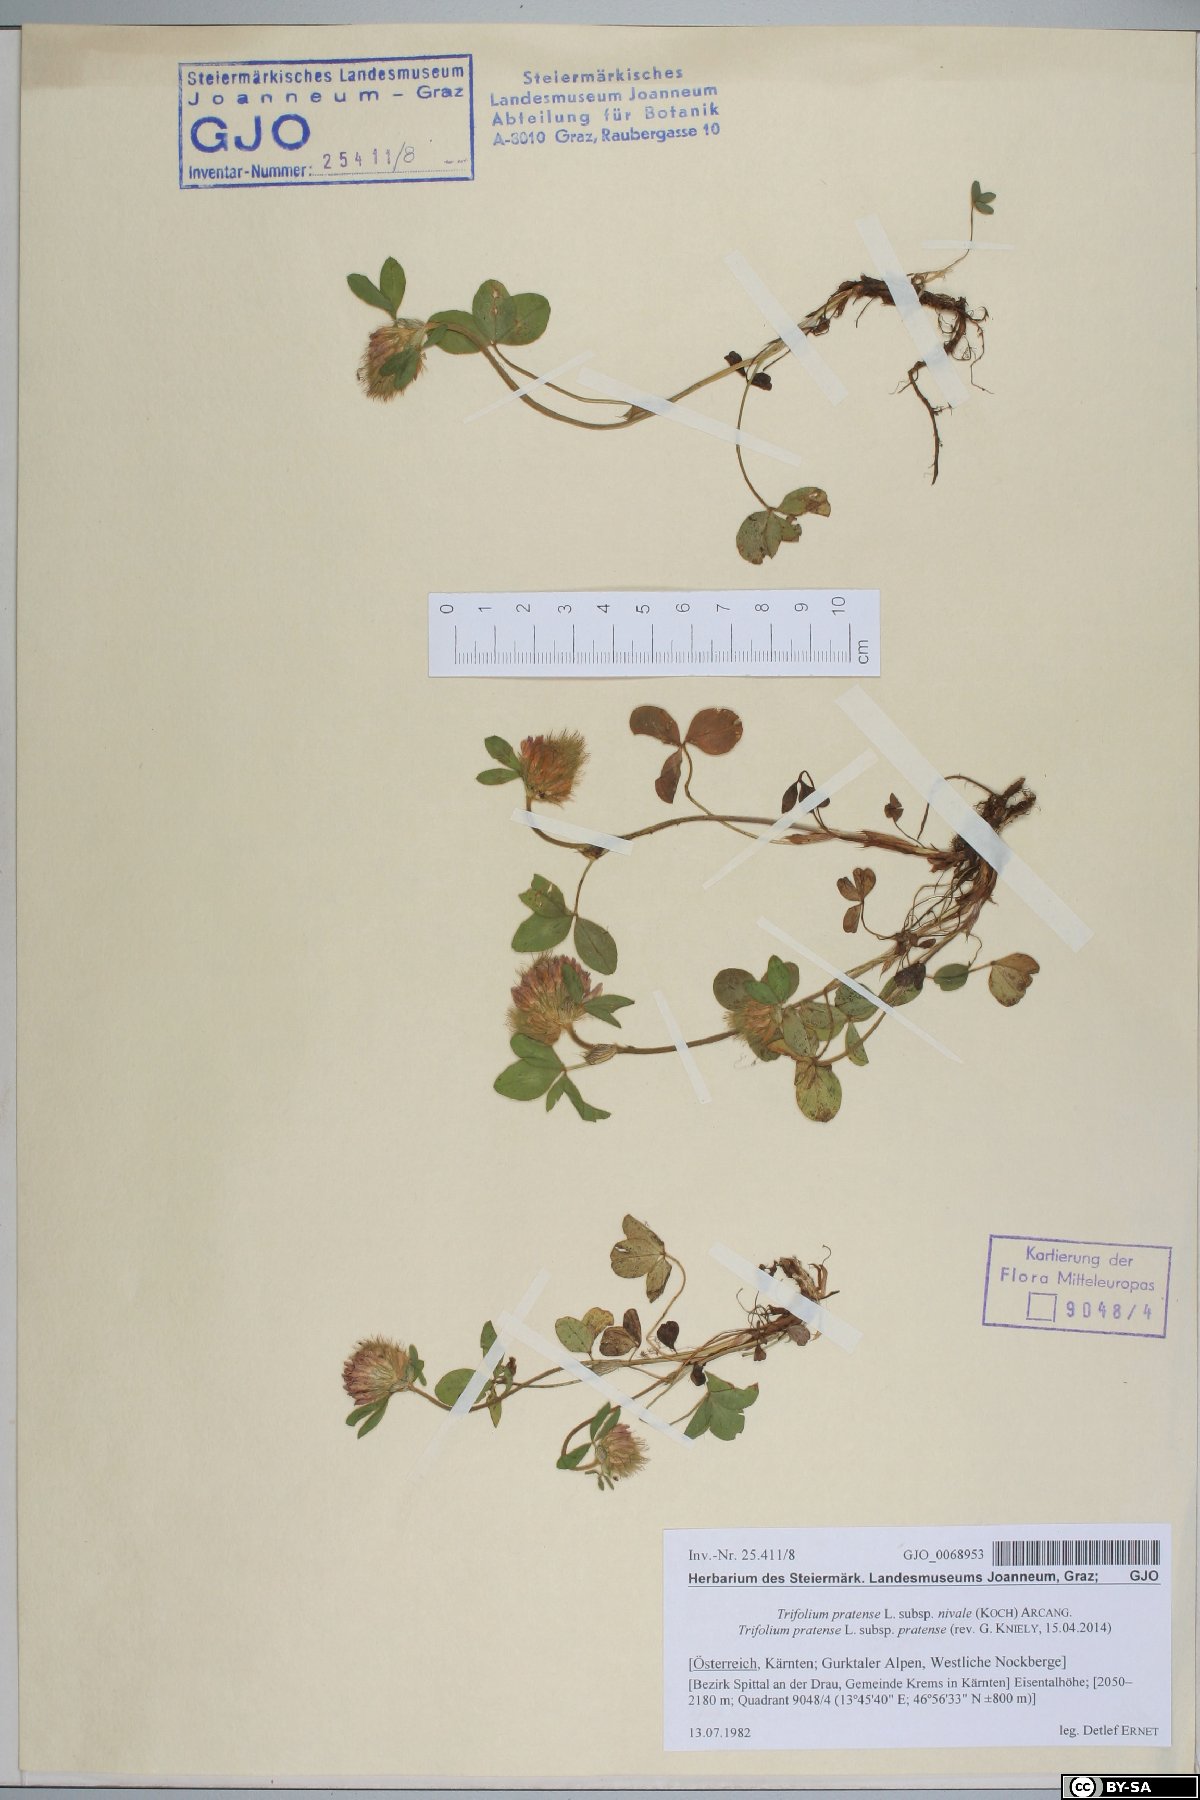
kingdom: Plantae
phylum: Tracheophyta
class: Magnoliopsida
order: Fabales
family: Fabaceae
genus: Trifolium
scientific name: Trifolium pratense
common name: Red clover
